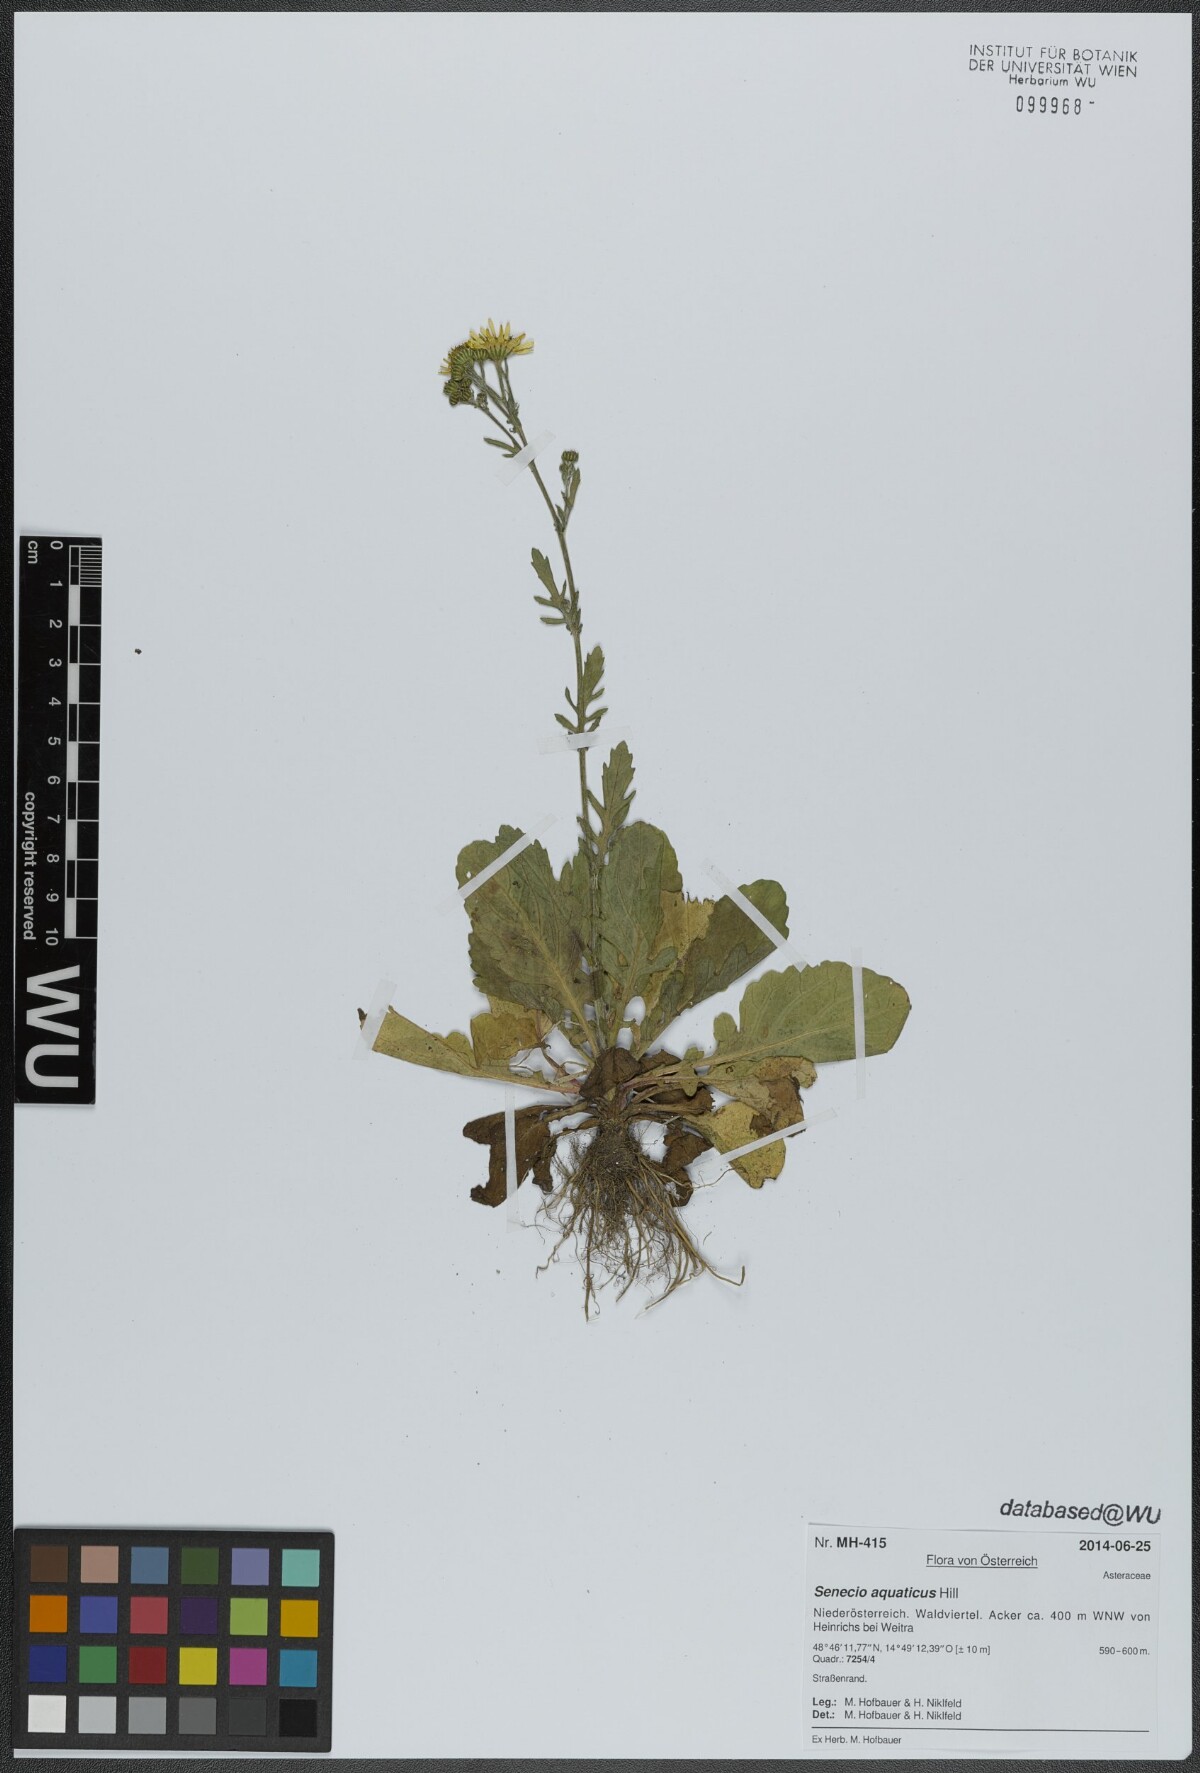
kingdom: Plantae
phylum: Tracheophyta
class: Magnoliopsida
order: Asterales
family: Asteraceae
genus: Jacobaea
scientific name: Jacobaea aquatica
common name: Water ragwort
